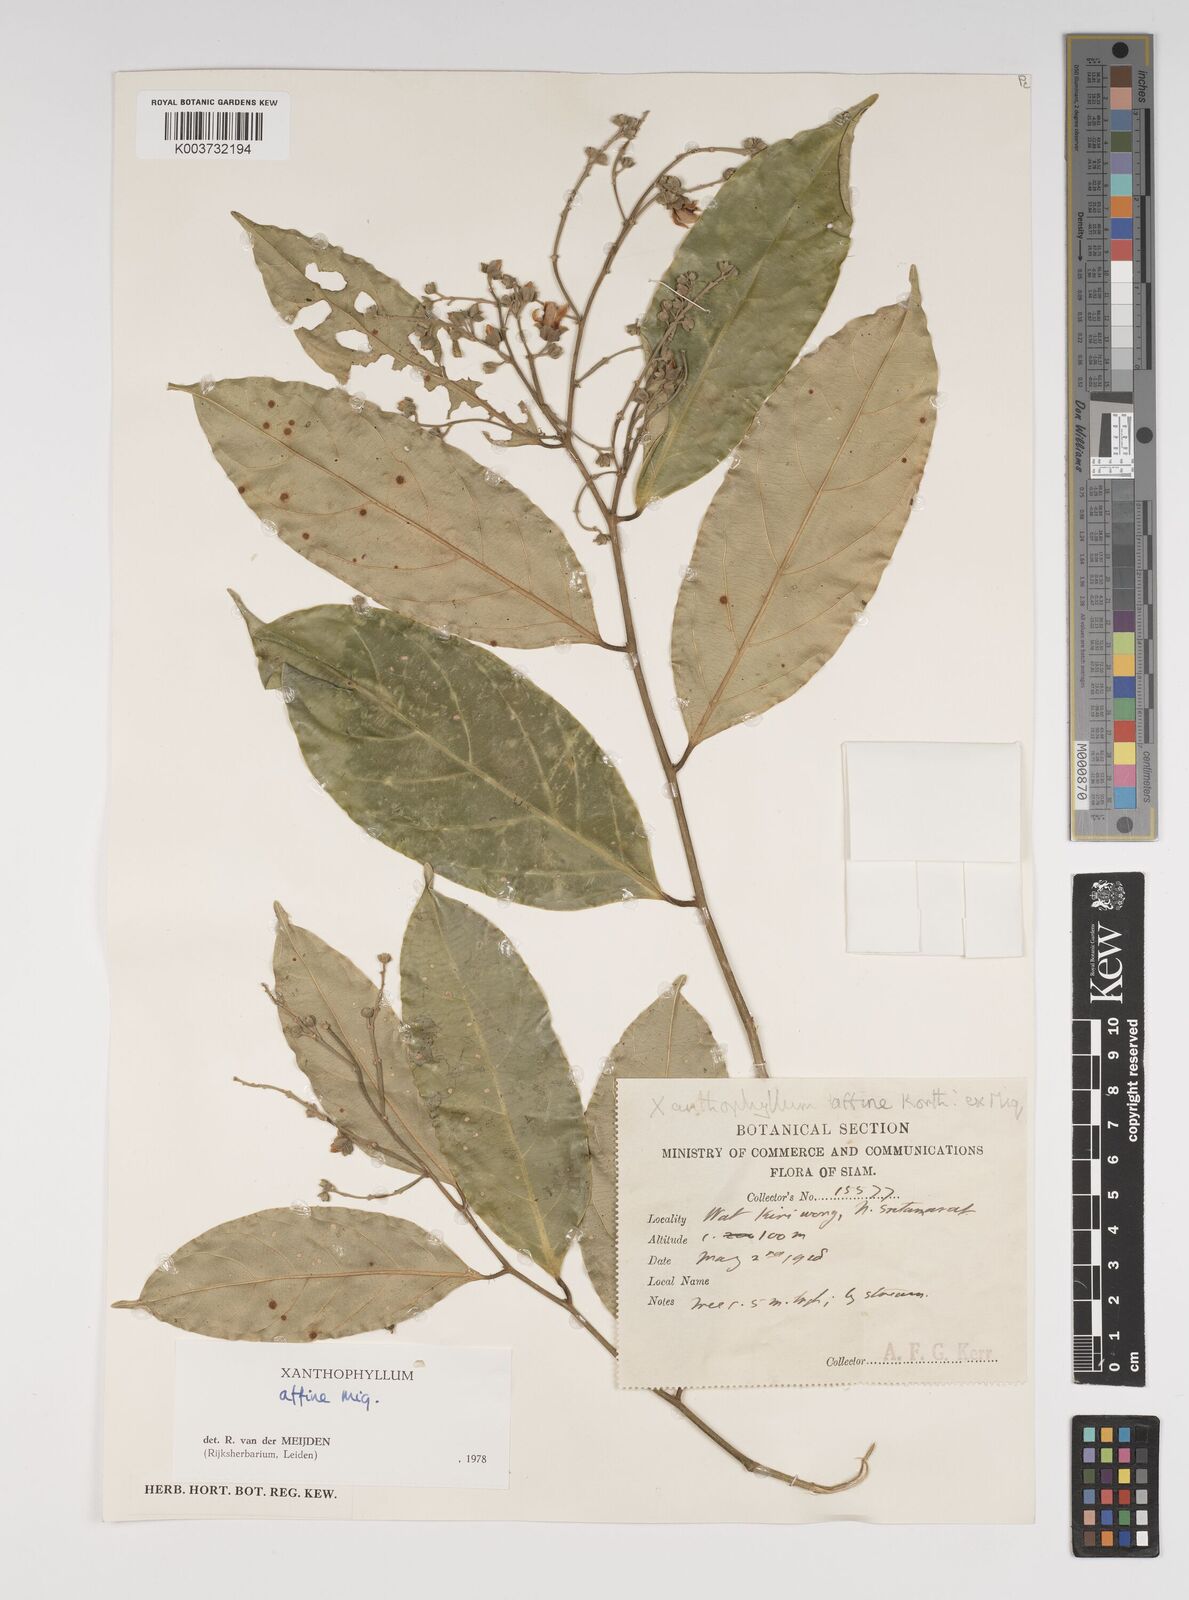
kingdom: Plantae
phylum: Tracheophyta
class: Magnoliopsida
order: Fabales
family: Polygalaceae
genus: Xanthophyllum
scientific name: Xanthophyllum flavescens
